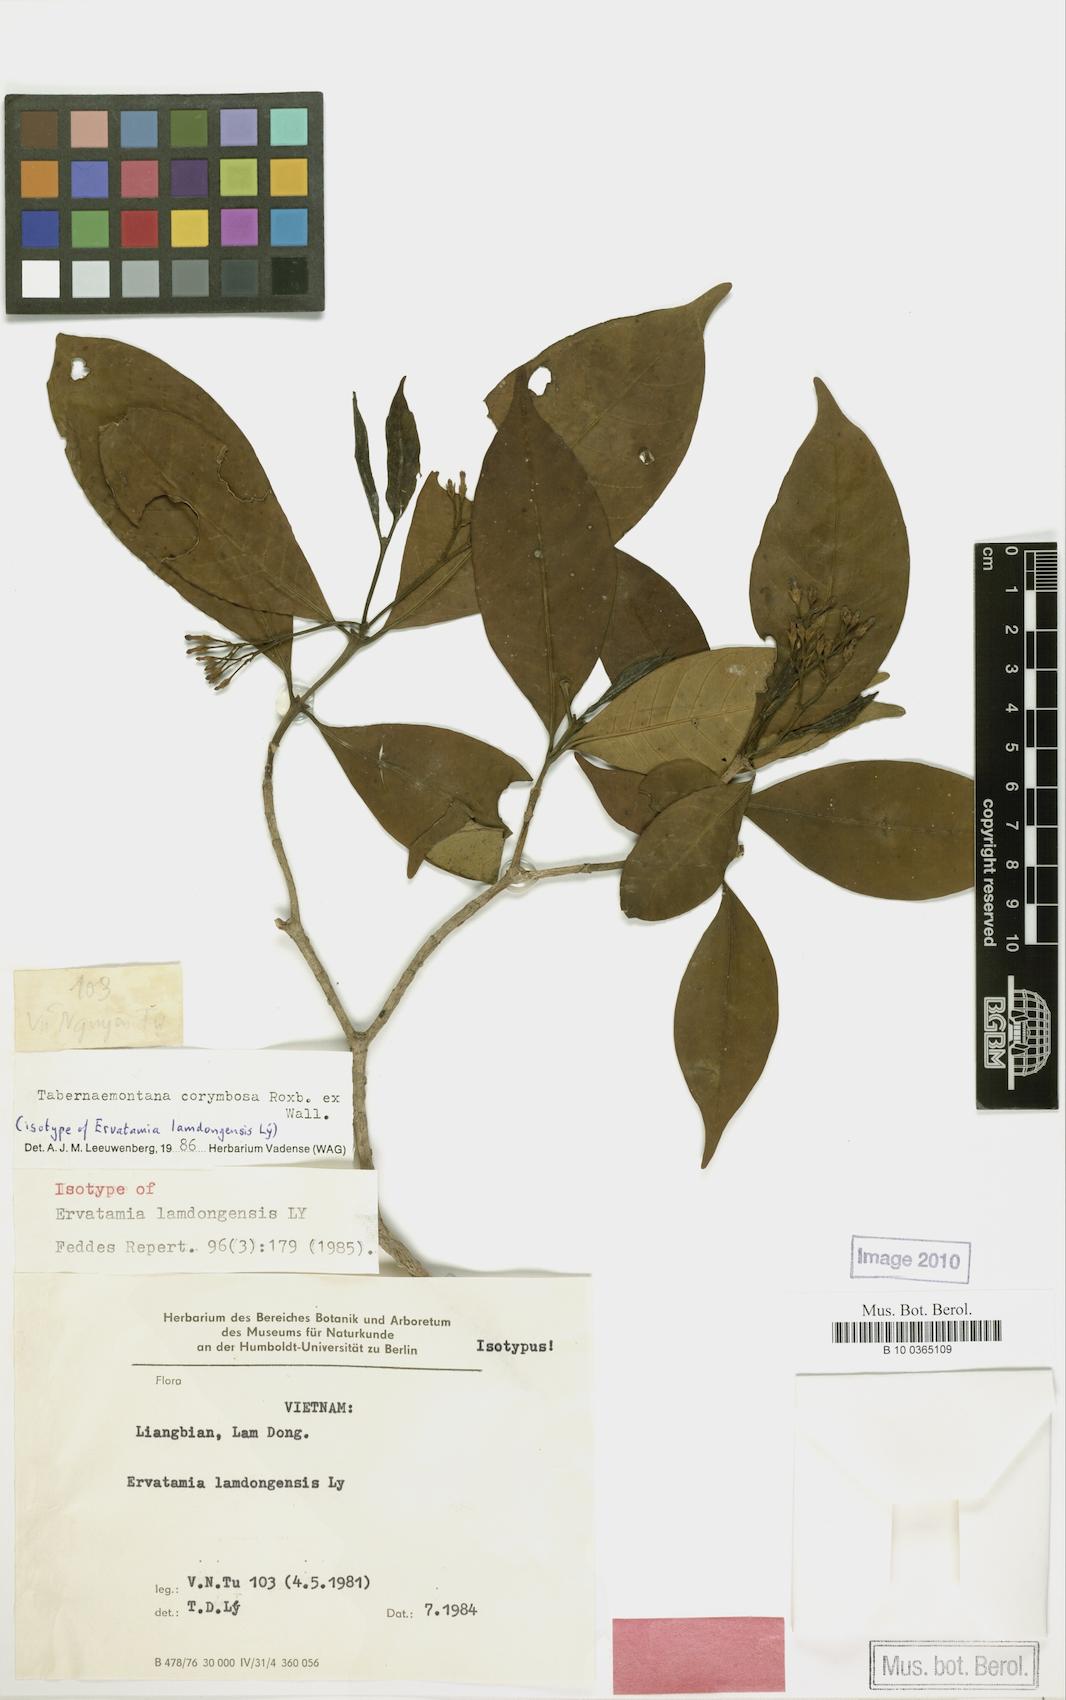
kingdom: Plantae
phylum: Tracheophyta
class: Magnoliopsida
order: Gentianales
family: Apocynaceae
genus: Tabernaemontana
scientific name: Tabernaemontana corymbosa
